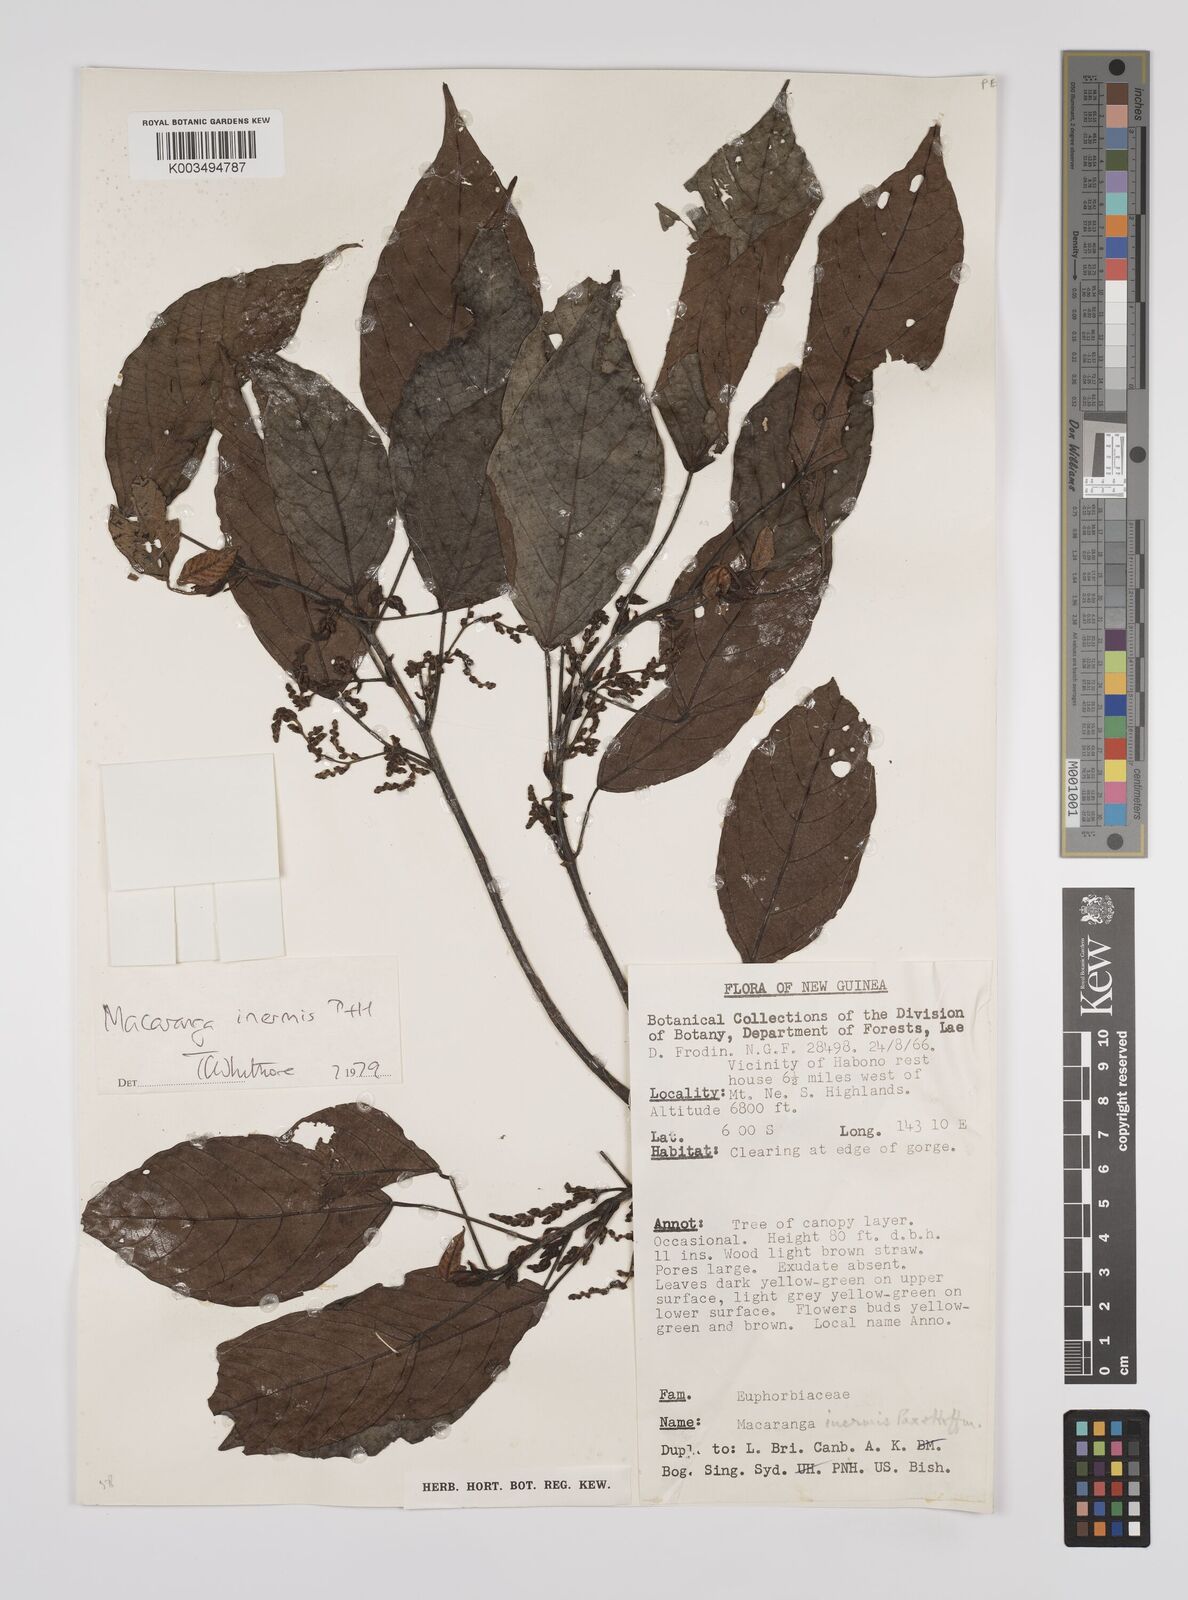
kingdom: Plantae
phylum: Tracheophyta
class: Magnoliopsida
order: Malpighiales
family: Euphorbiaceae
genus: Macaranga
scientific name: Macaranga inermis
